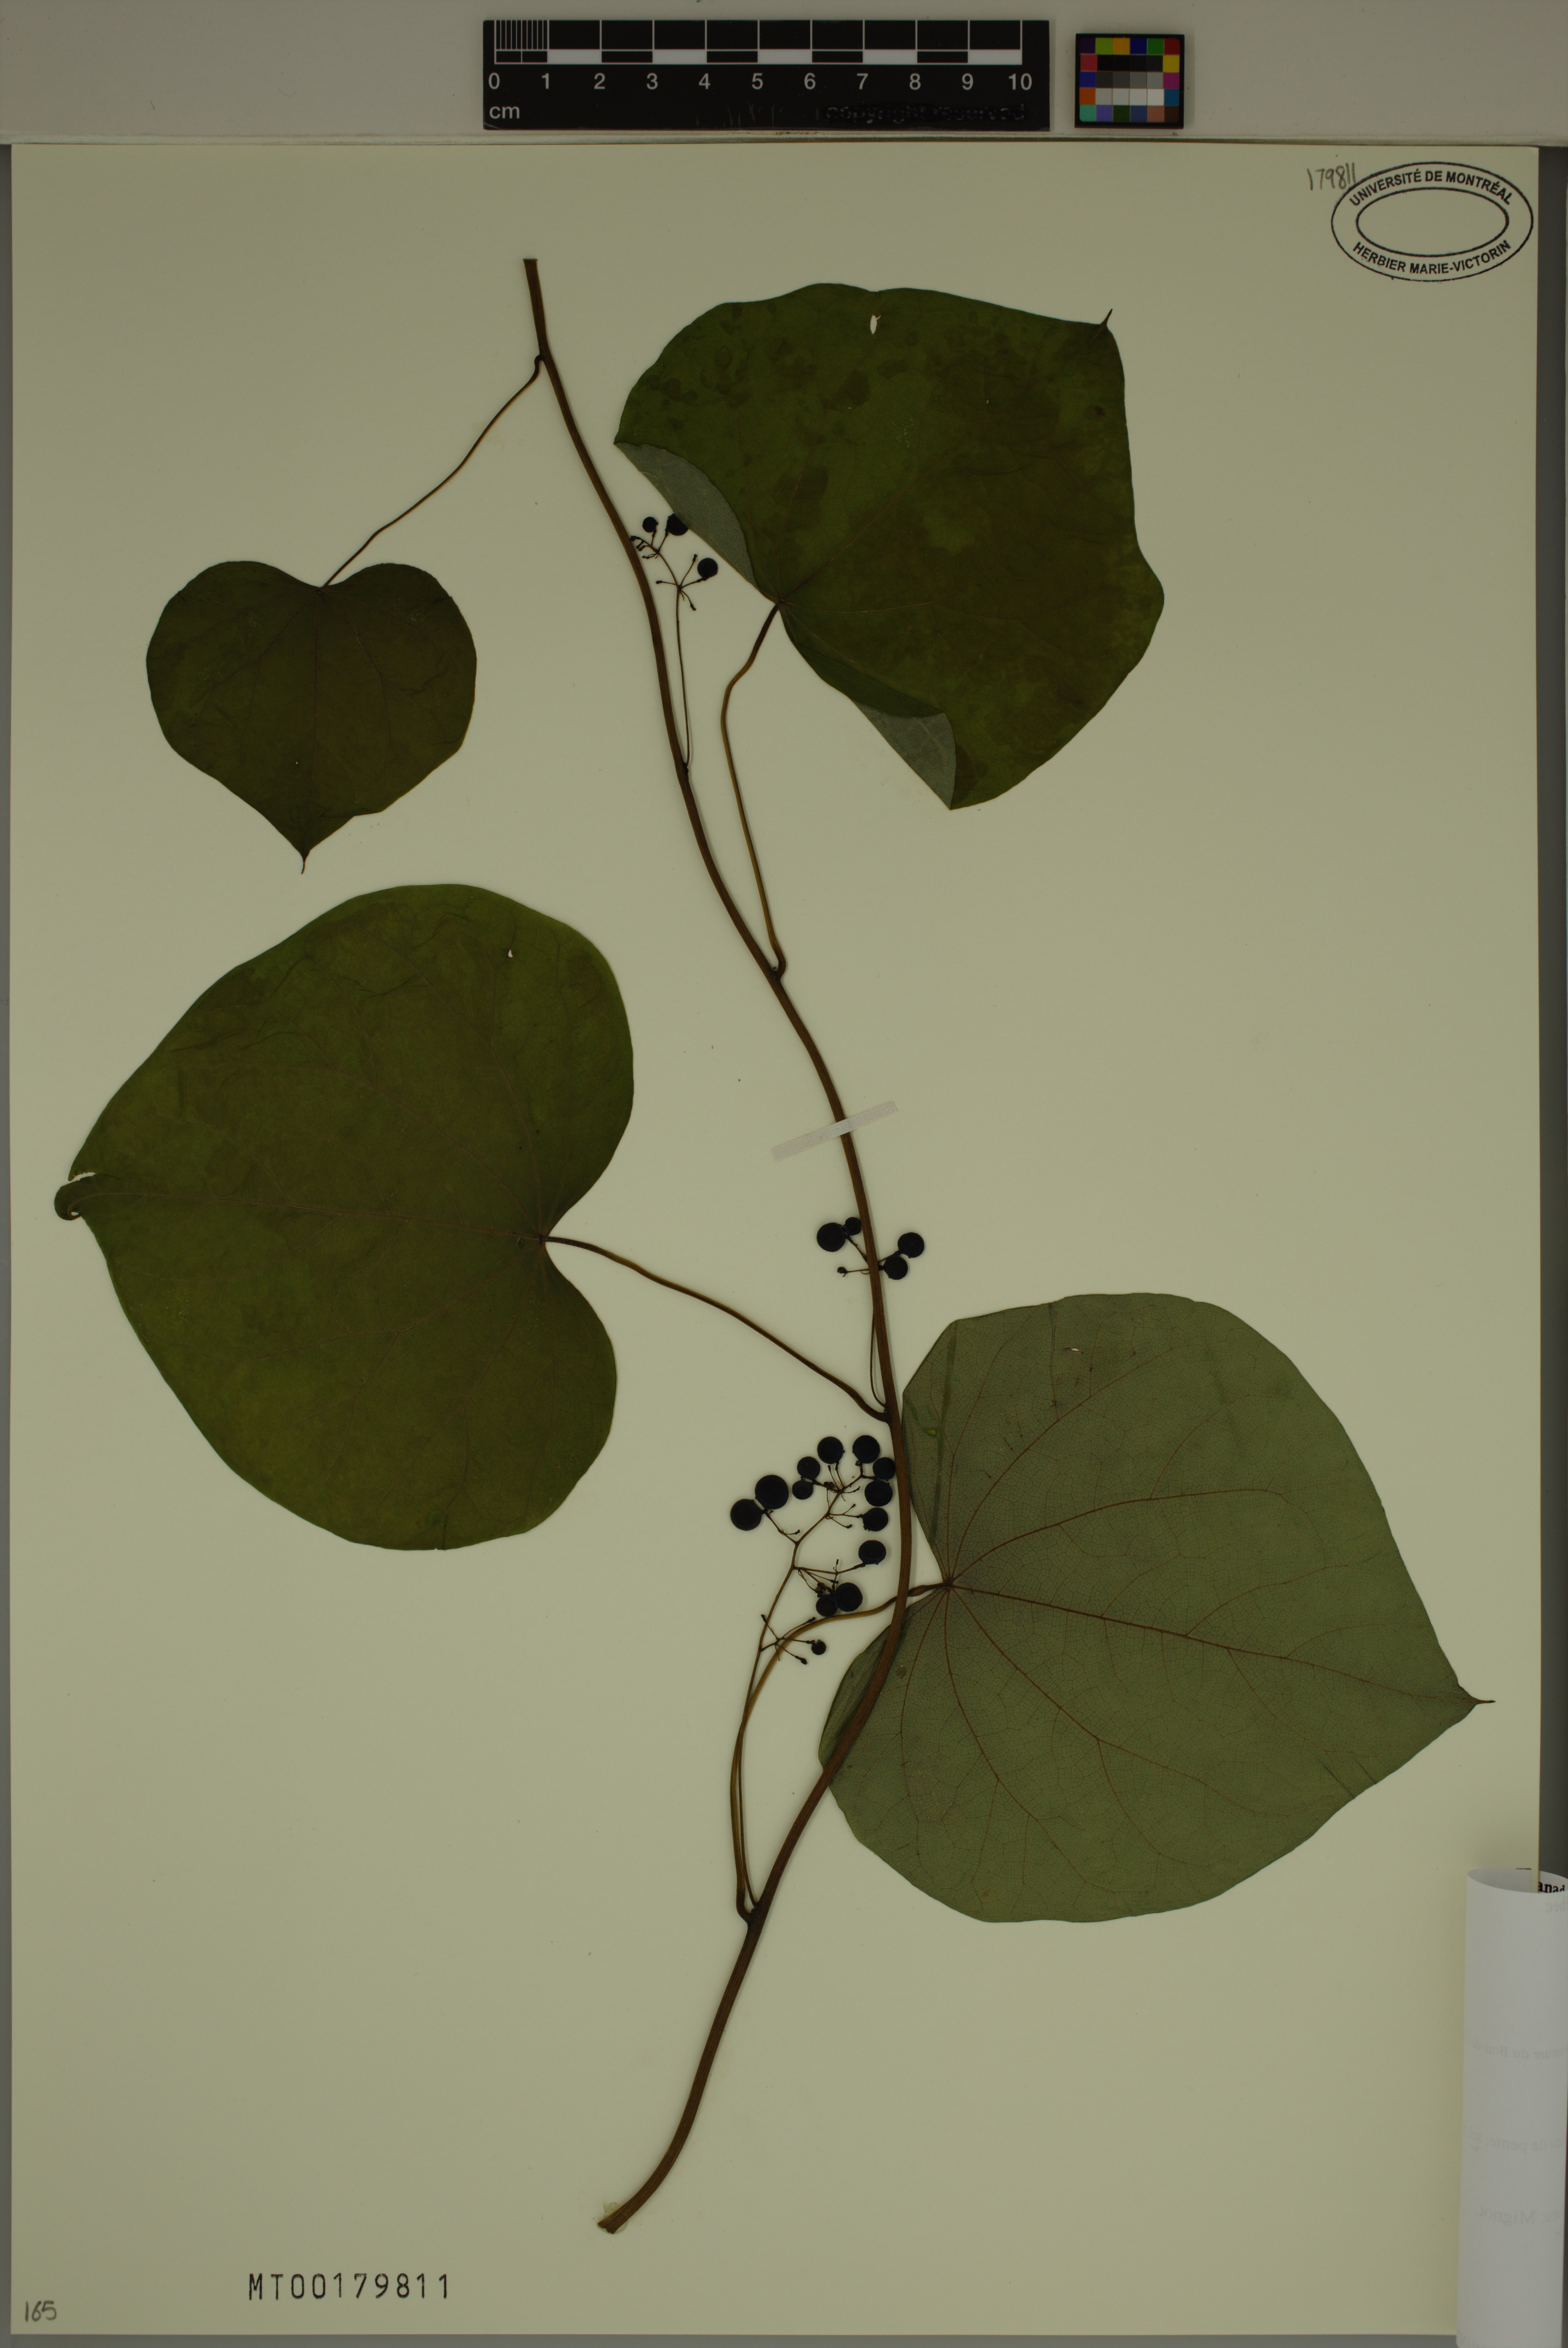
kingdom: Plantae
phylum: Tracheophyta
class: Magnoliopsida
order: Ranunculales
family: Menispermaceae
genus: Menispermum
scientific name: Menispermum canadense
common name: Moonseed
